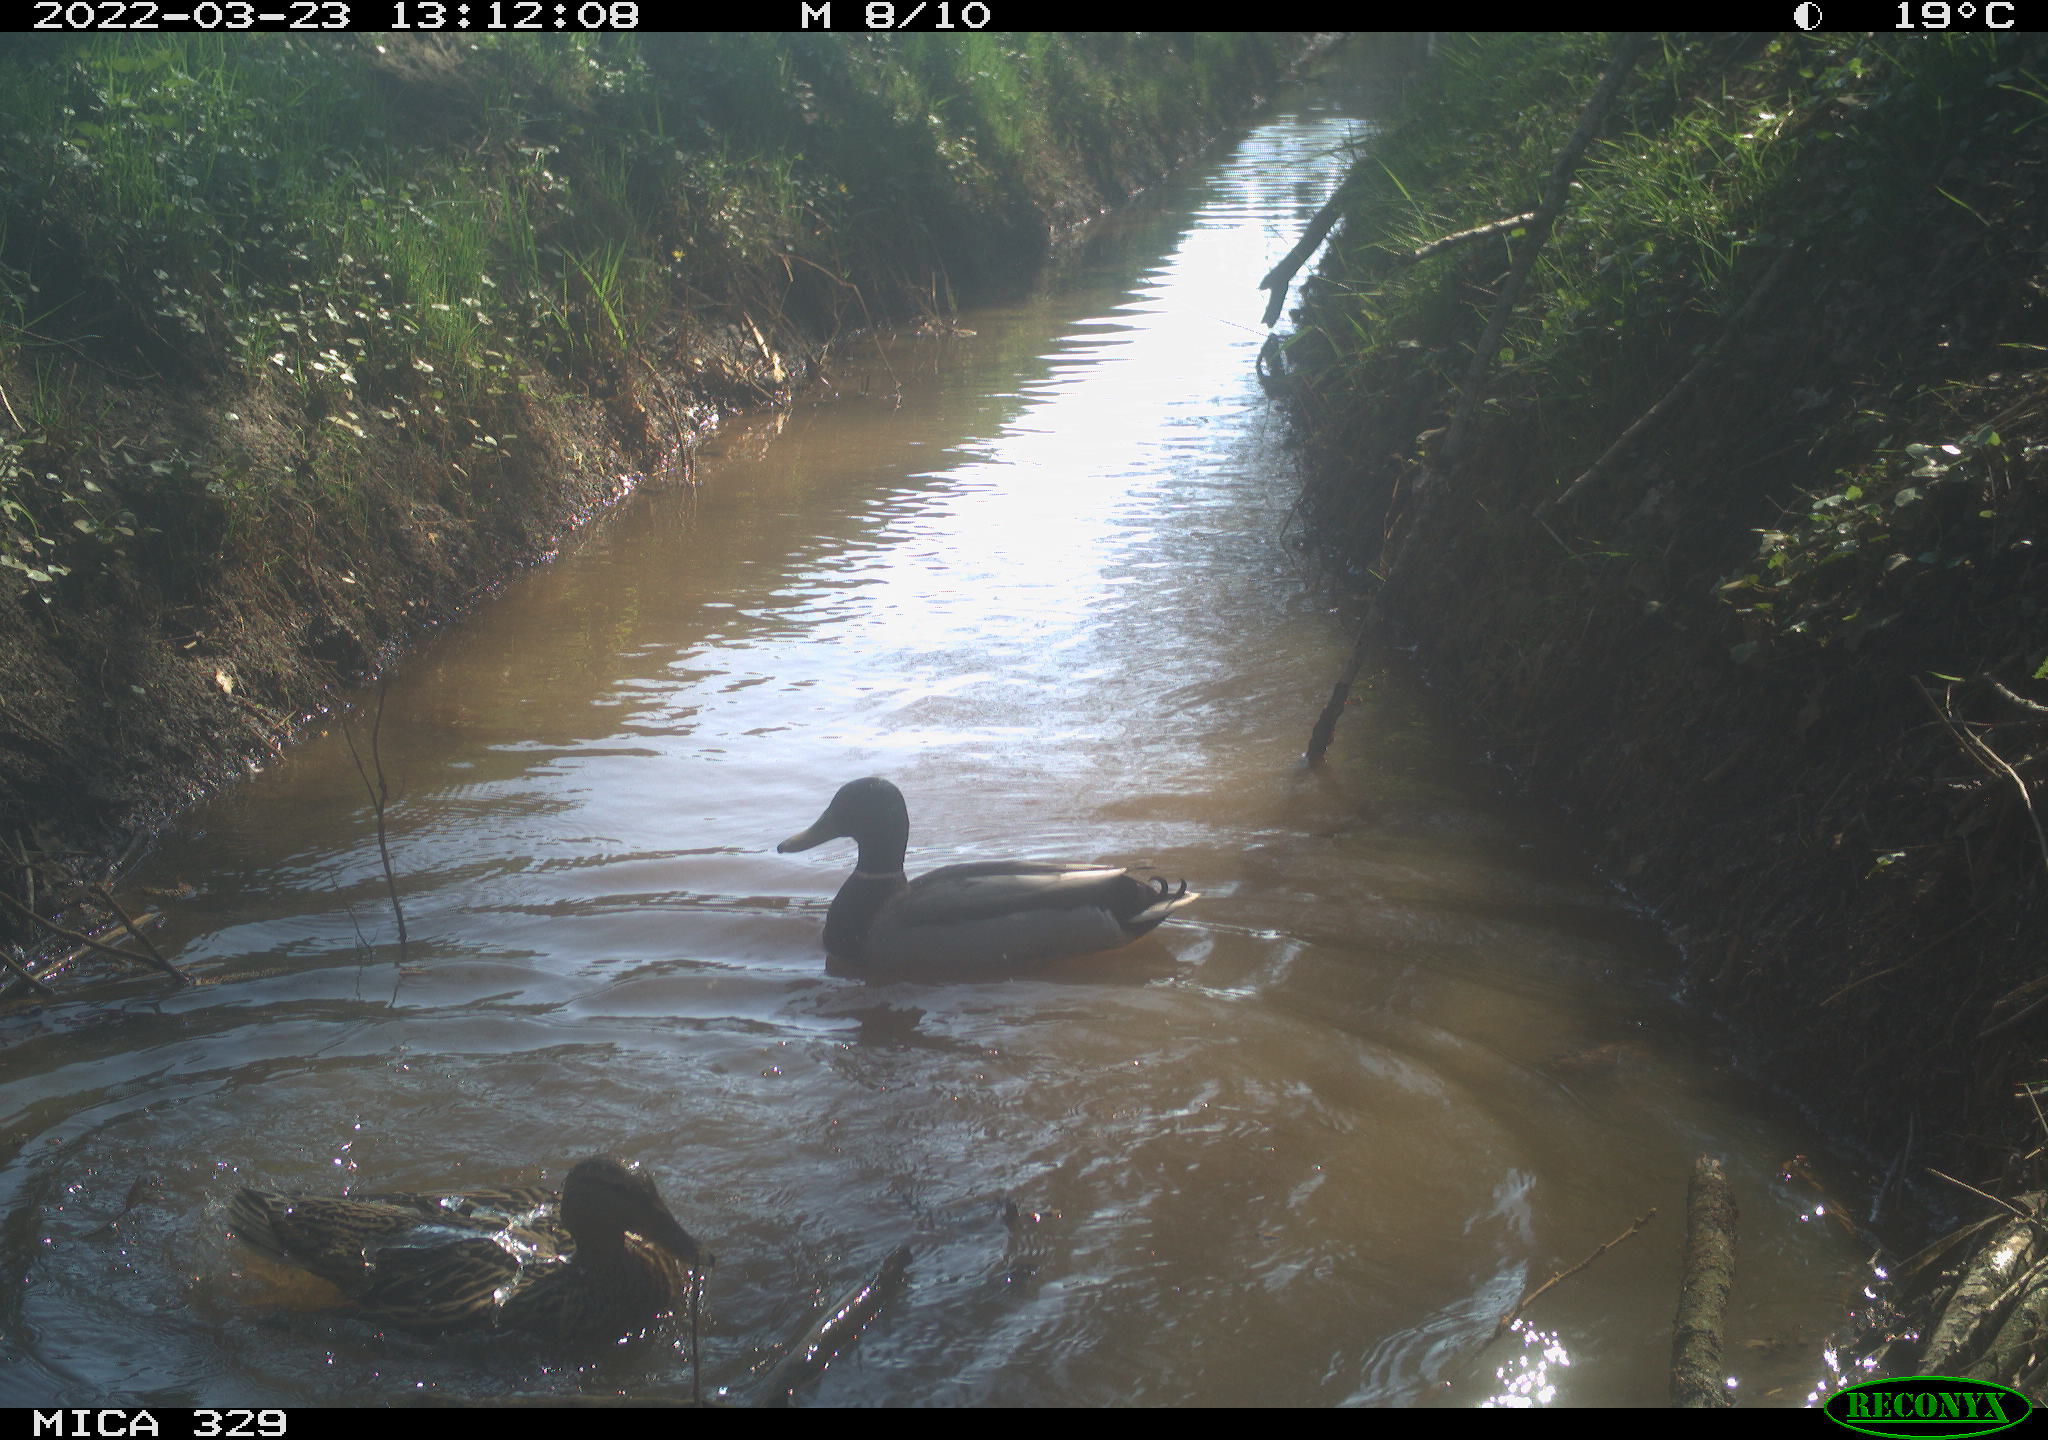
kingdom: Animalia
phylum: Chordata
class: Aves
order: Anseriformes
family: Anatidae
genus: Anas
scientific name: Anas platyrhynchos
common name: Mallard
